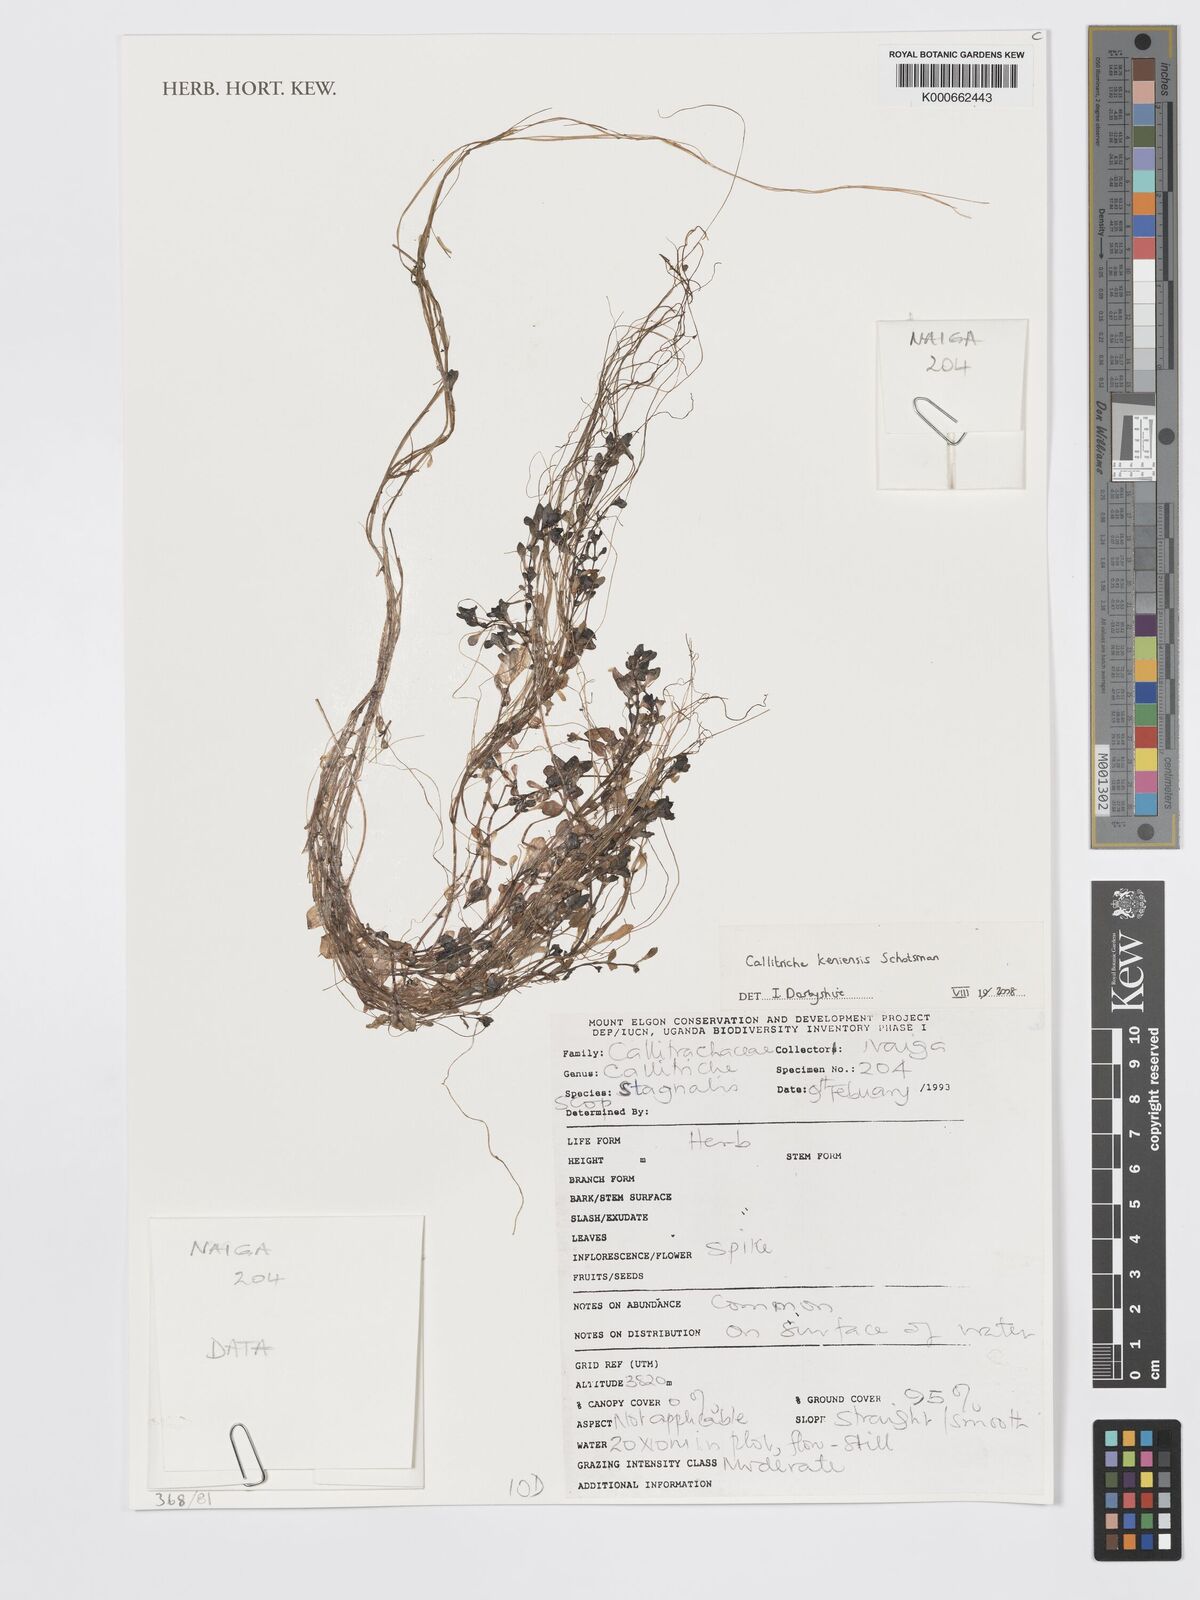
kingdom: Plantae
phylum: Tracheophyta
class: Magnoliopsida
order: Lamiales
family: Plantaginaceae
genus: Callitriche
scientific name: Callitriche keniensis
